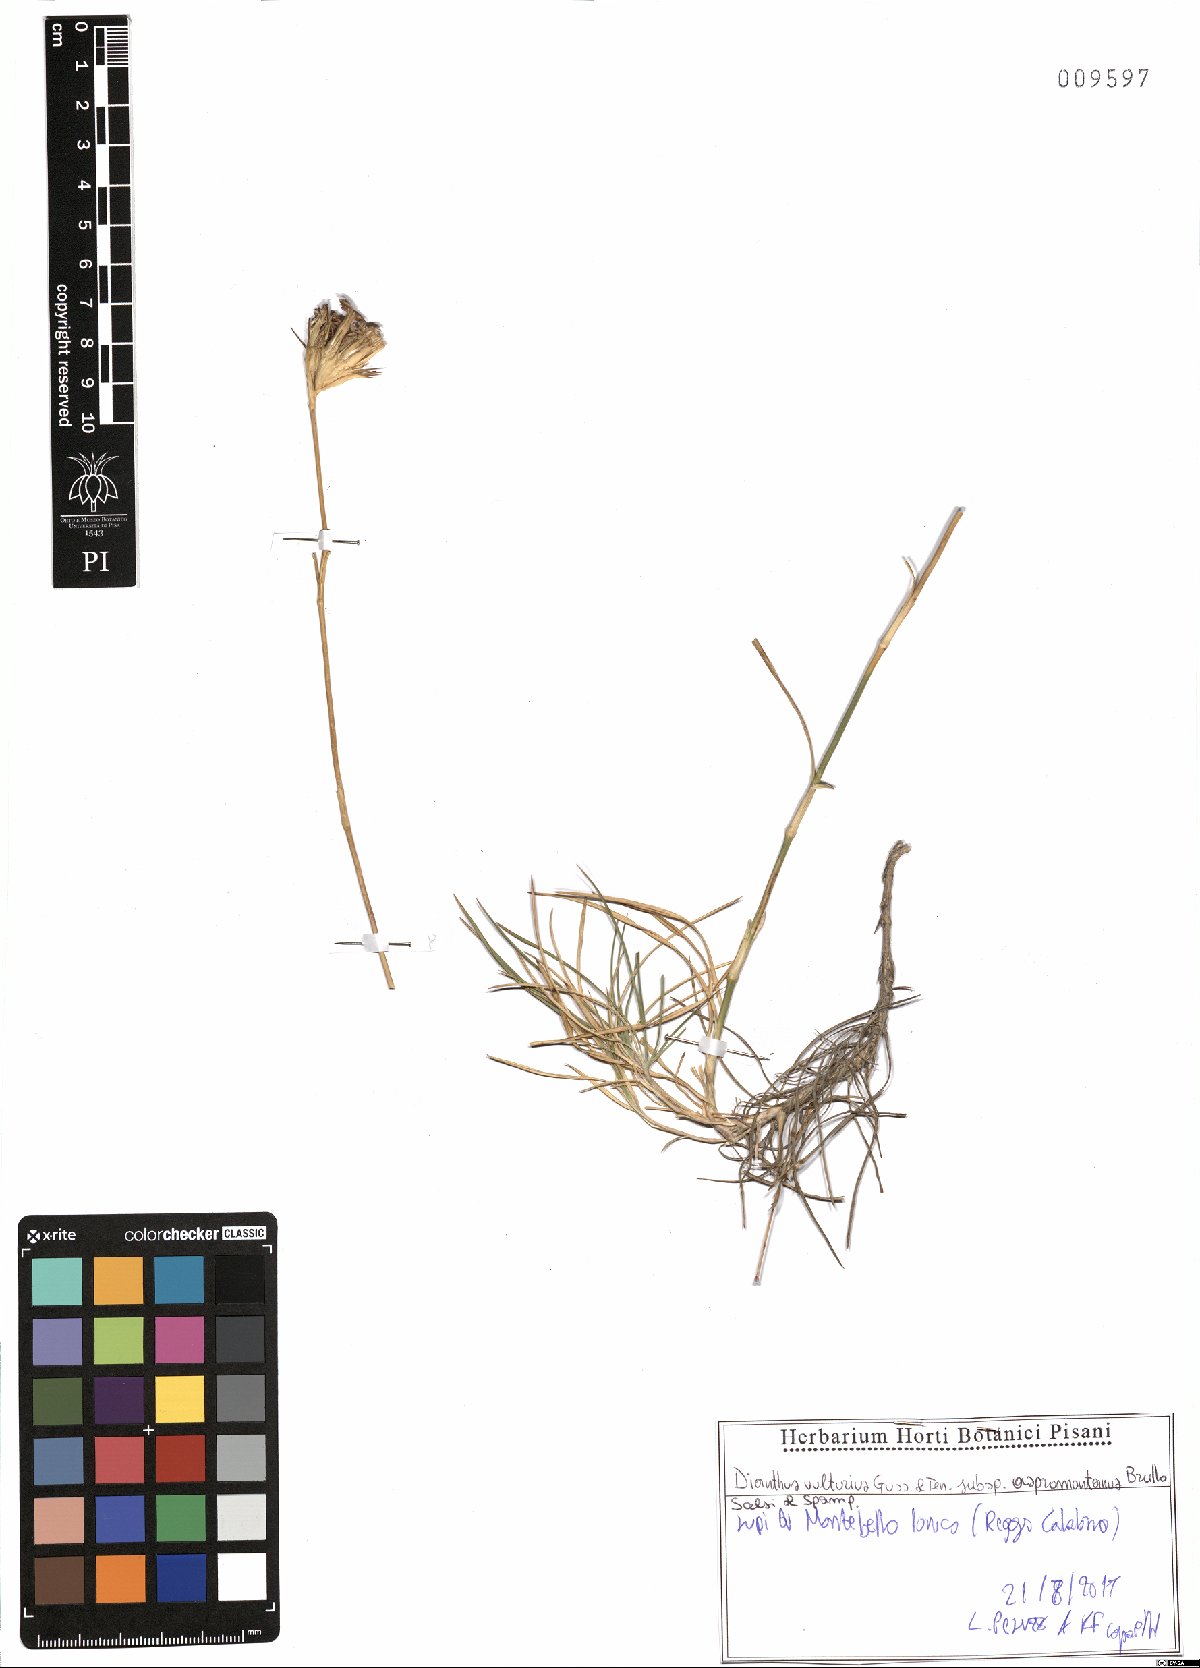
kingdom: Plantae
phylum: Tracheophyta
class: Magnoliopsida
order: Caryophyllales
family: Caryophyllaceae
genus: Dianthus
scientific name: Dianthus vulturius
